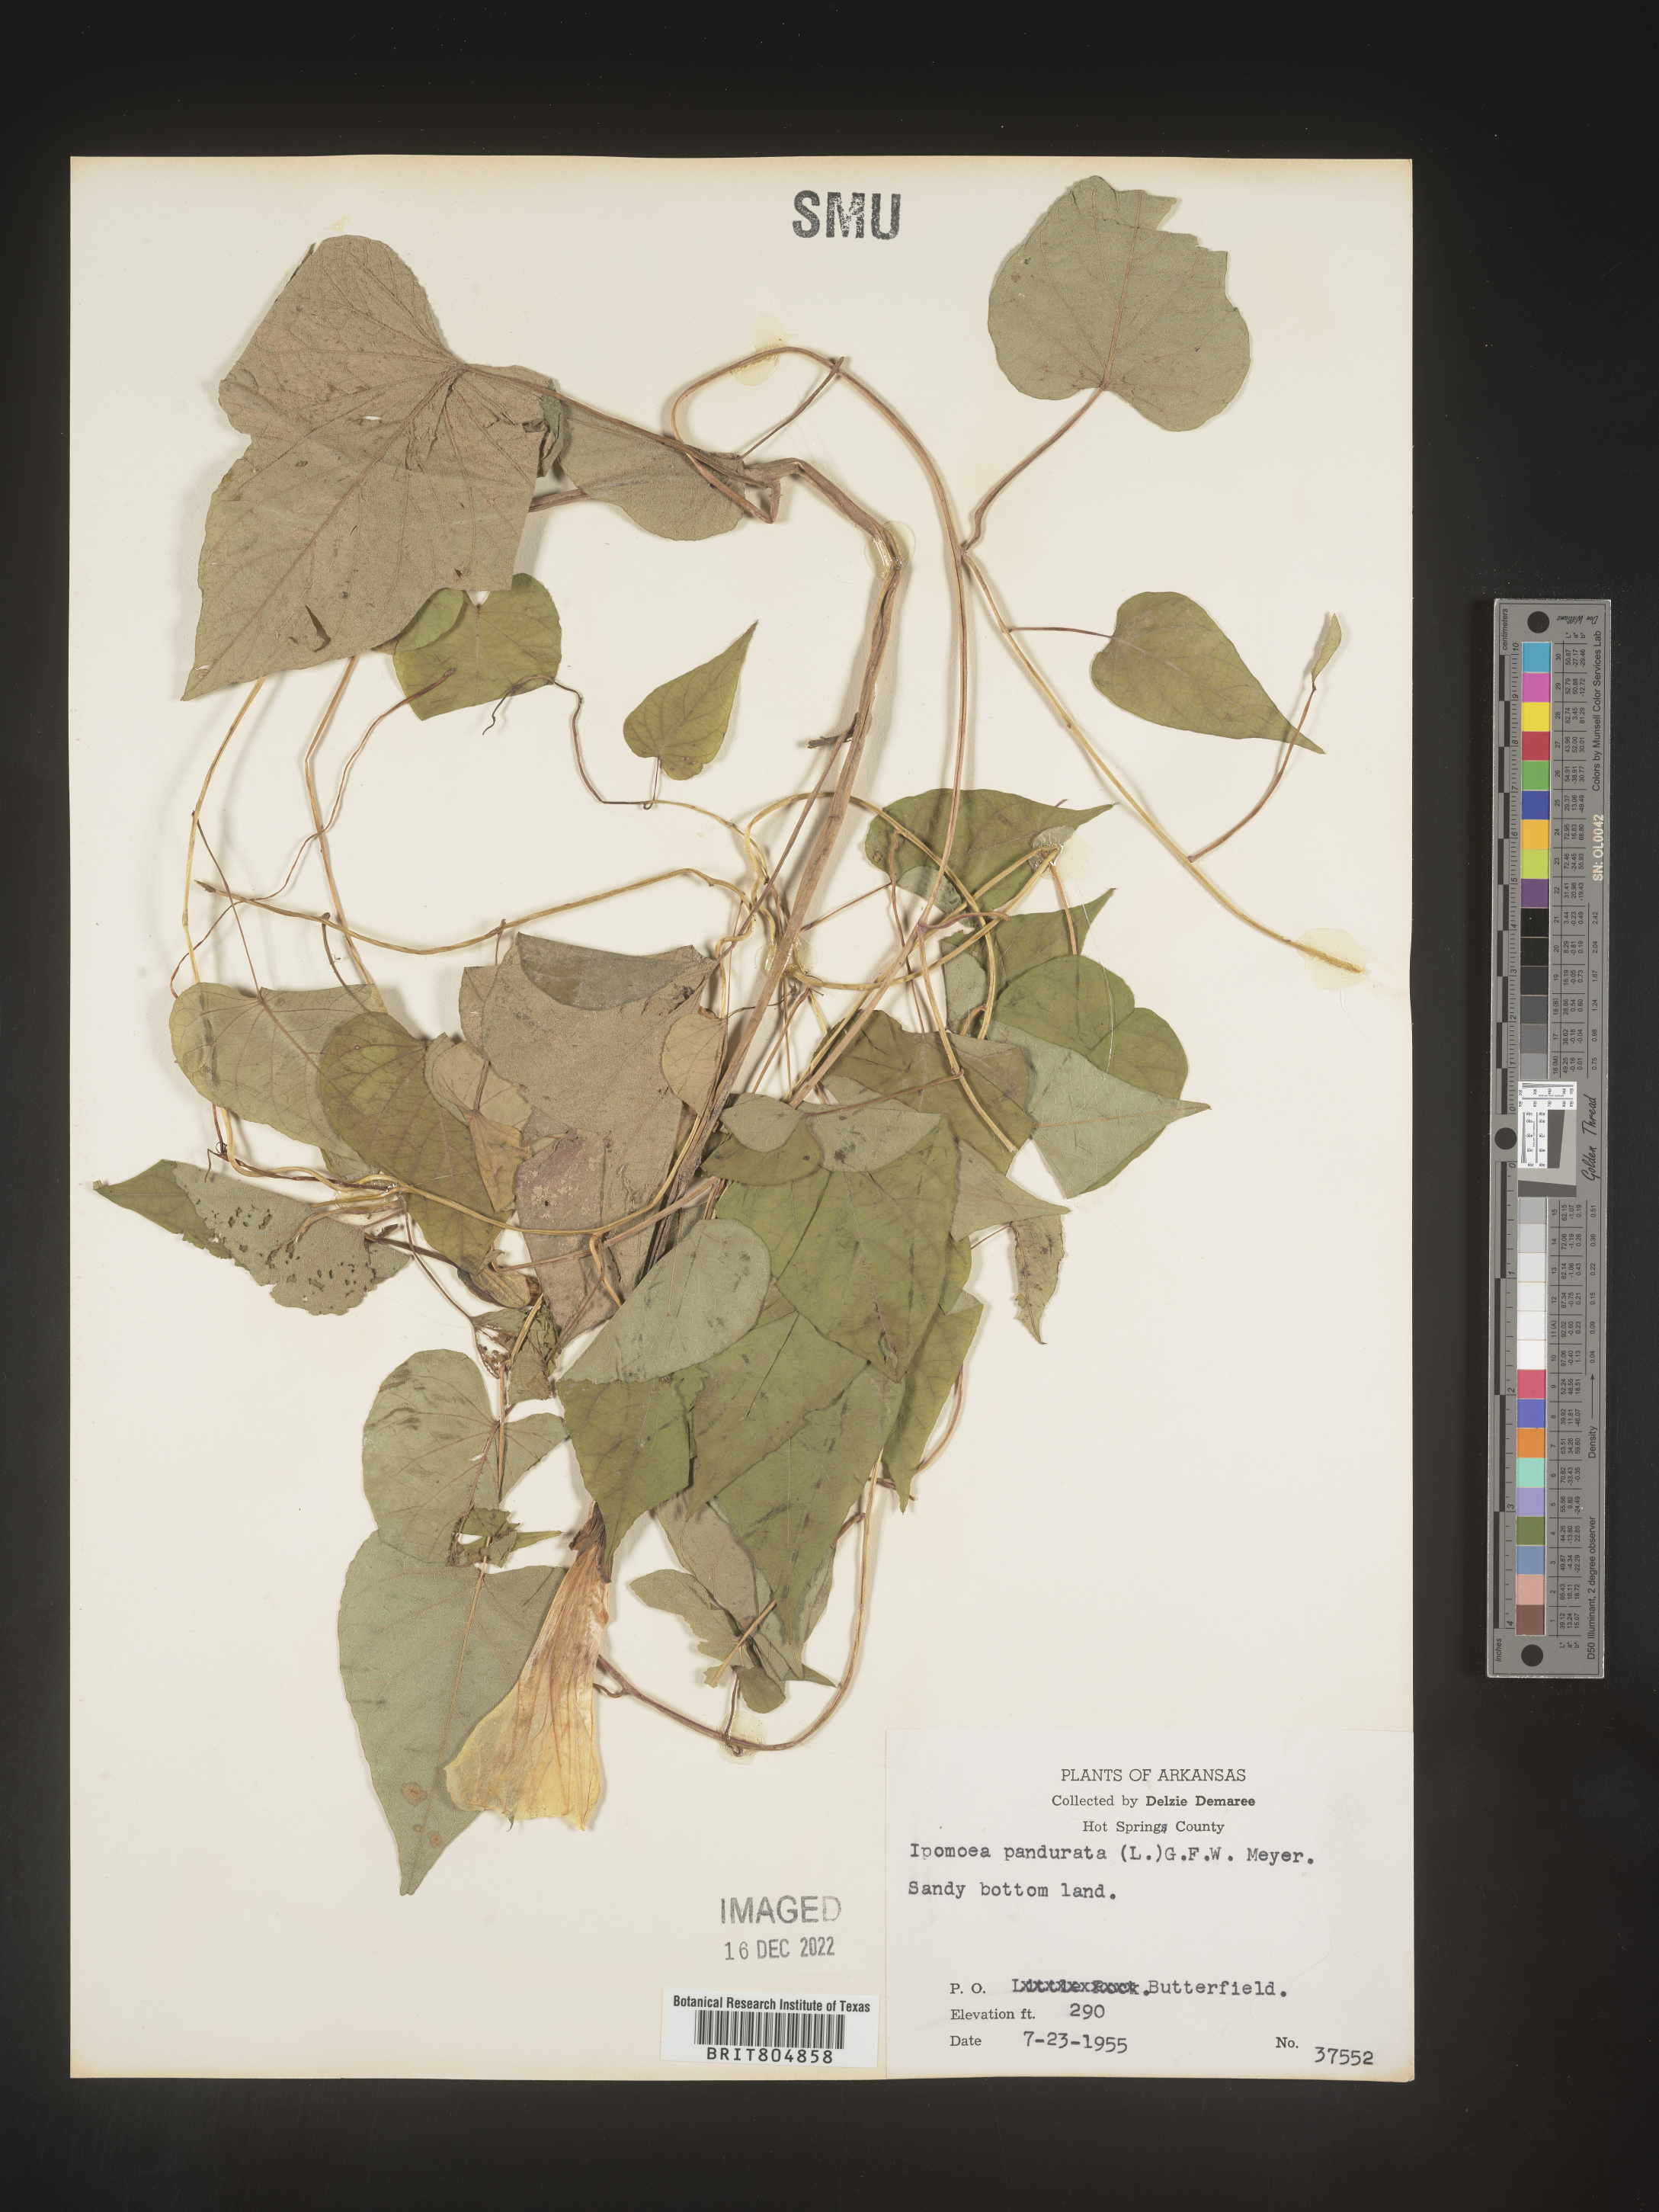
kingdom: Plantae
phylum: Tracheophyta
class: Magnoliopsida
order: Solanales
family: Convolvulaceae
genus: Ipomoea
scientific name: Ipomoea pandurata
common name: Man-of-the-earth
